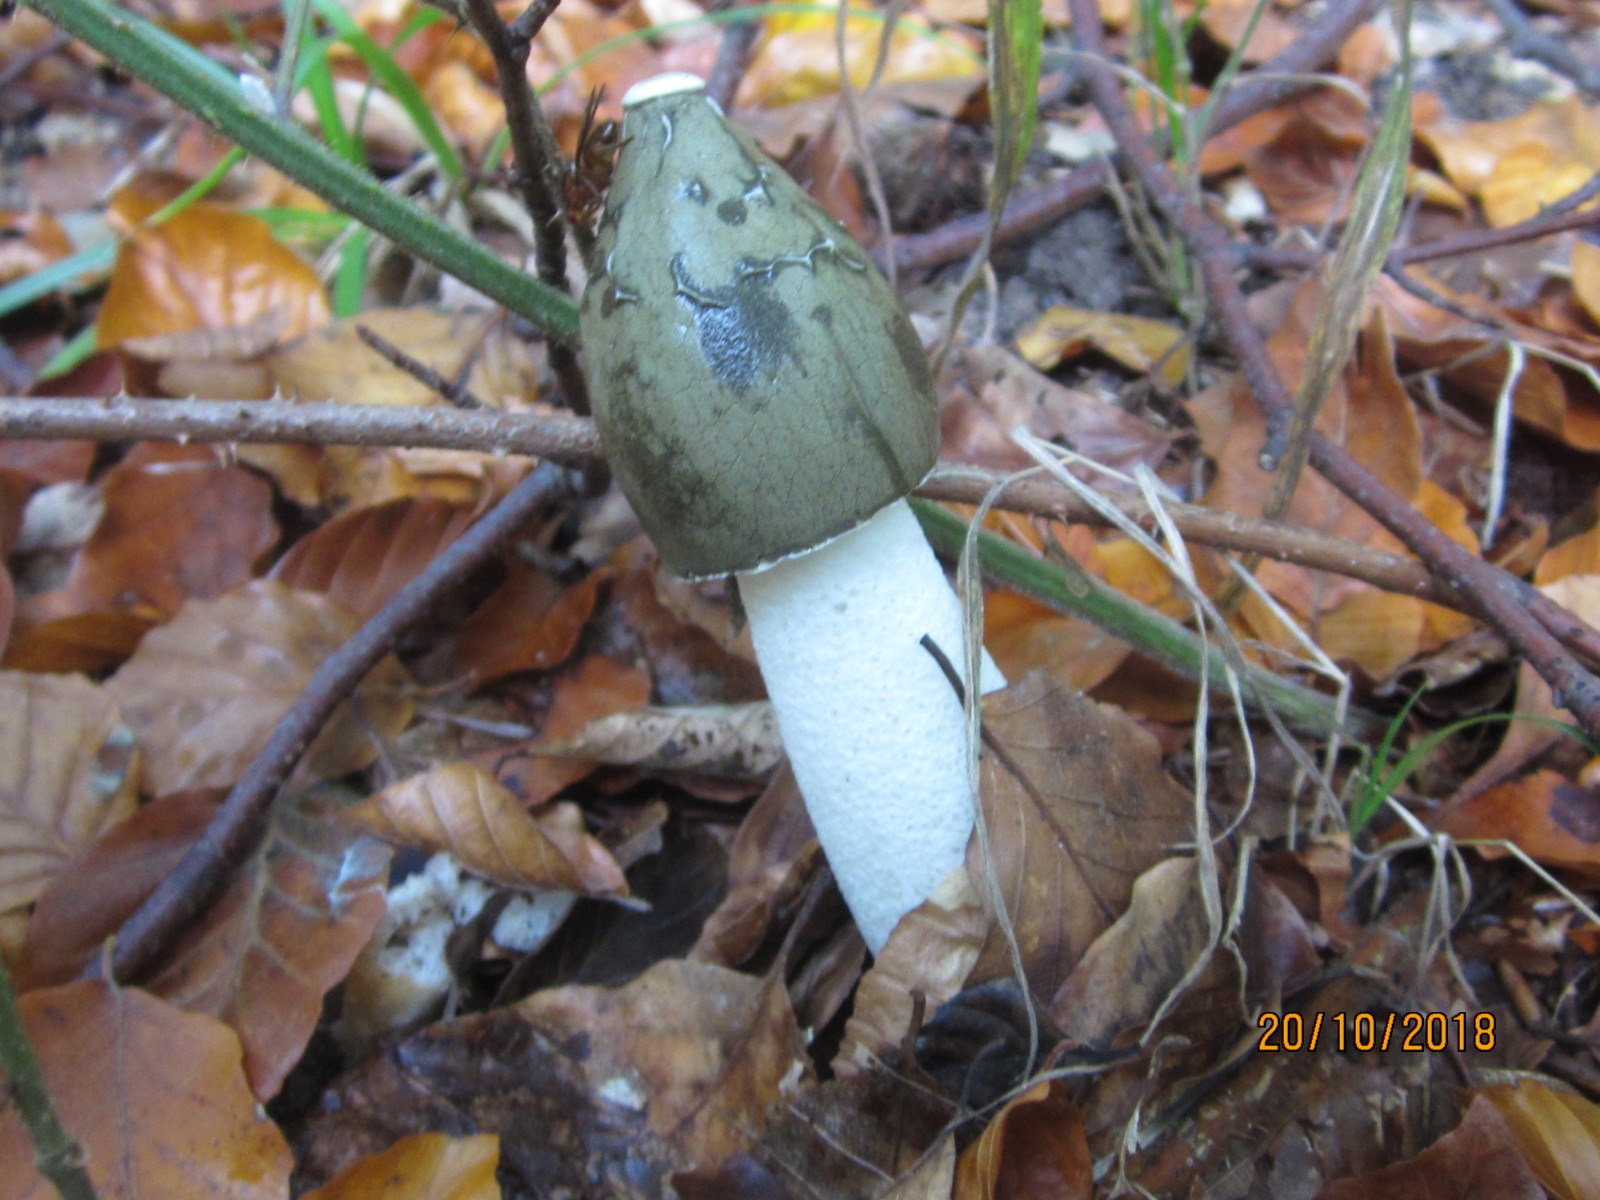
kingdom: Fungi
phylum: Basidiomycota
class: Agaricomycetes
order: Phallales
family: Phallaceae
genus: Phallus
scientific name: Phallus impudicus
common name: almindelig stinksvamp
